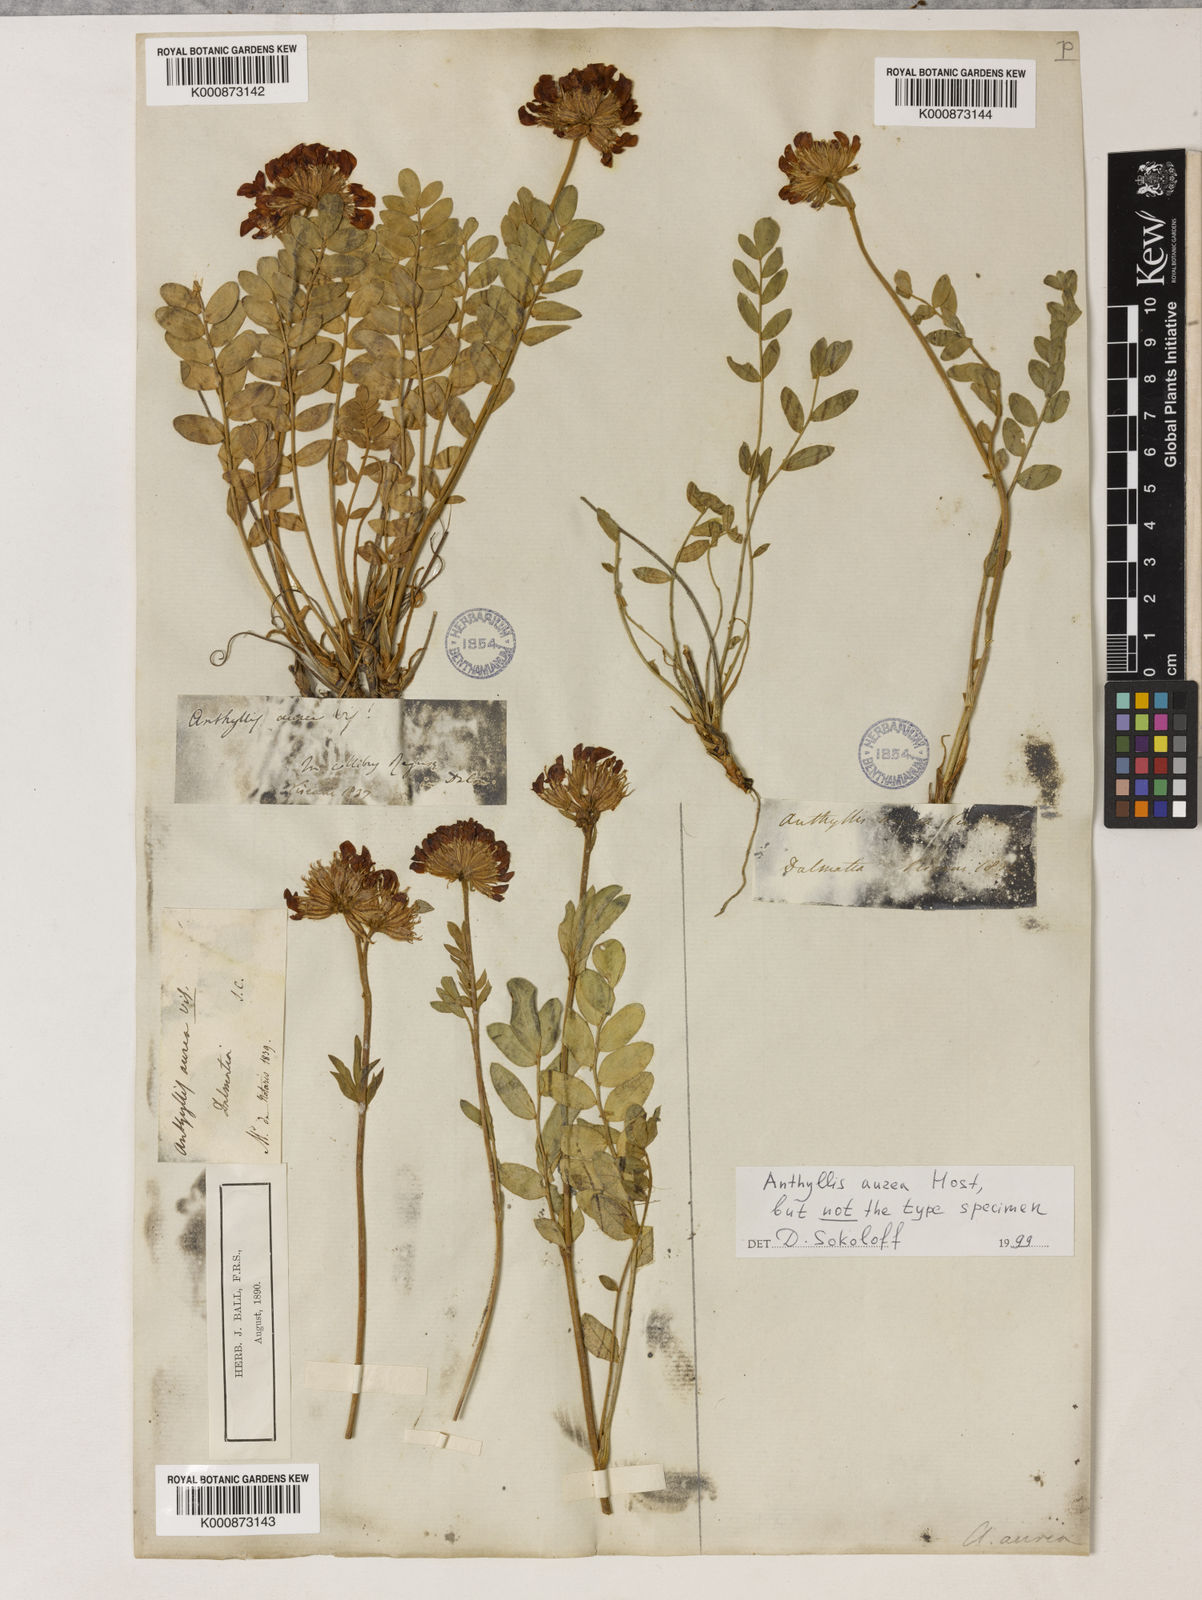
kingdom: Plantae
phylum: Tracheophyta
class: Magnoliopsida
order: Fabales
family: Fabaceae
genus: Anthyllis
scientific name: Anthyllis aurea
